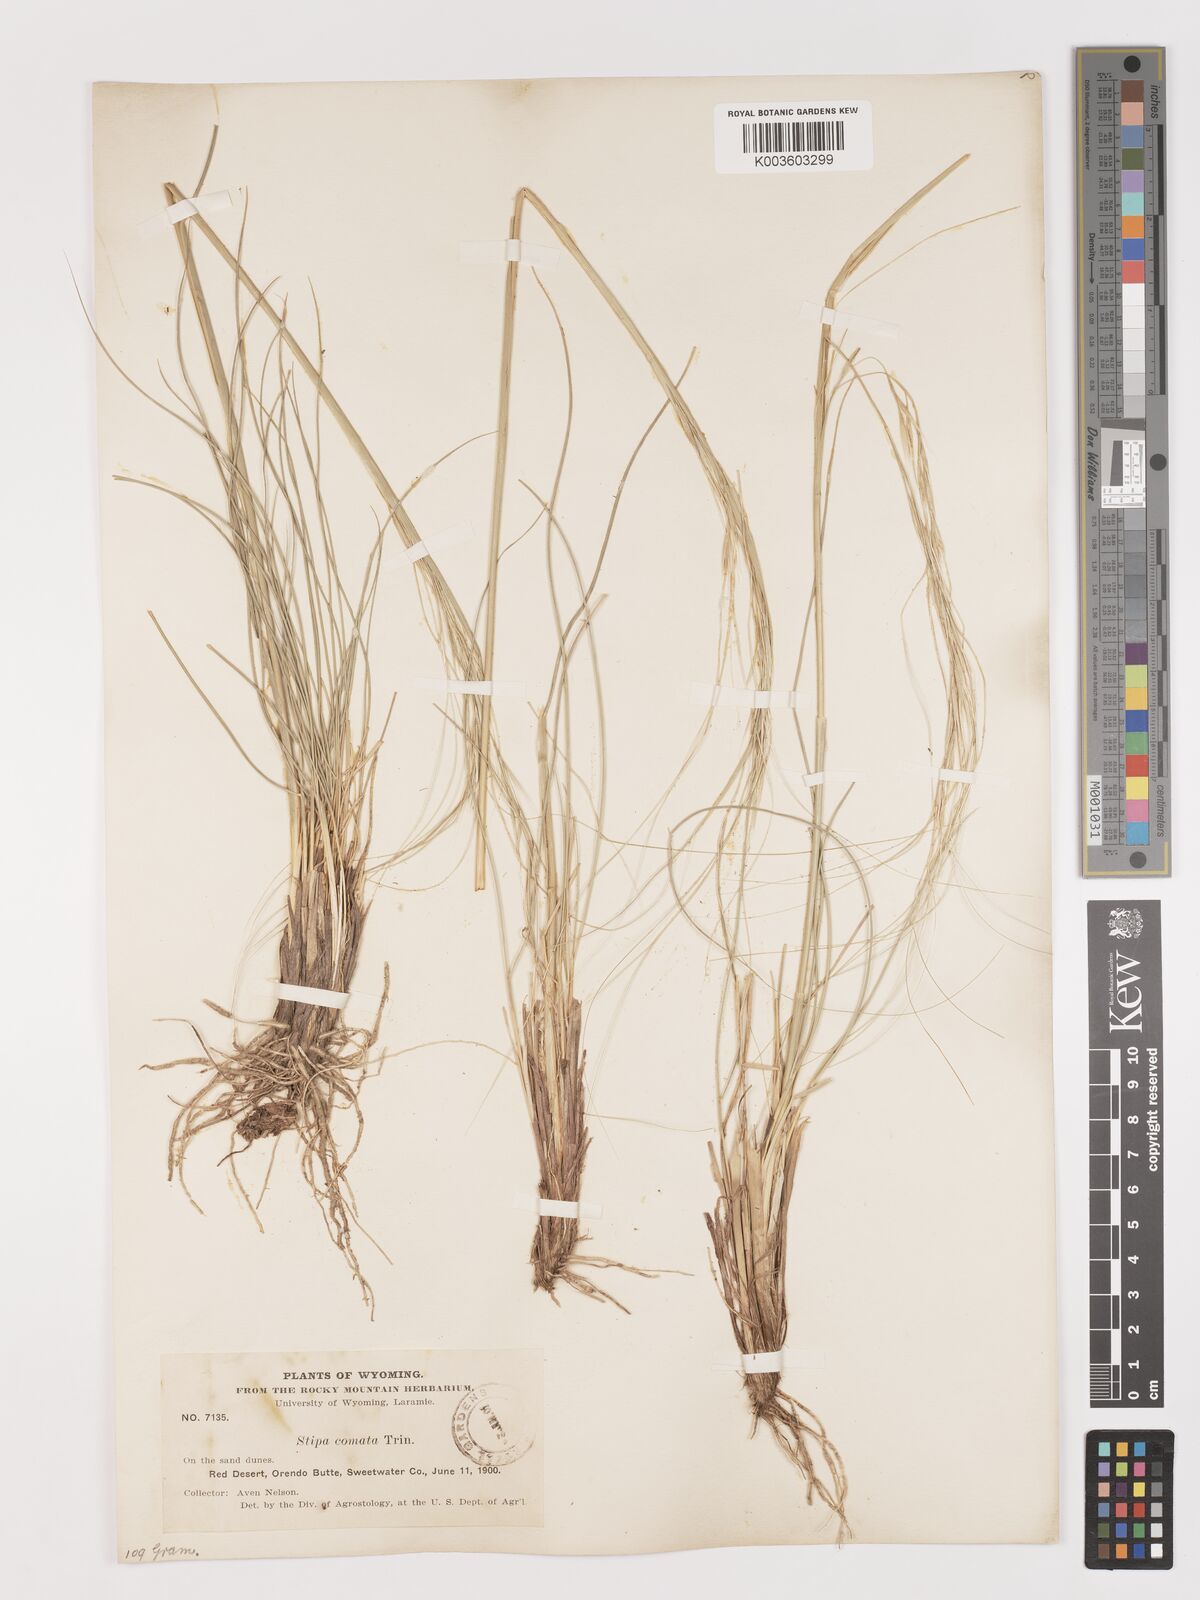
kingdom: Plantae
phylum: Tracheophyta
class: Liliopsida
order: Poales
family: Poaceae
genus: Stipa
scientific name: Stipa
